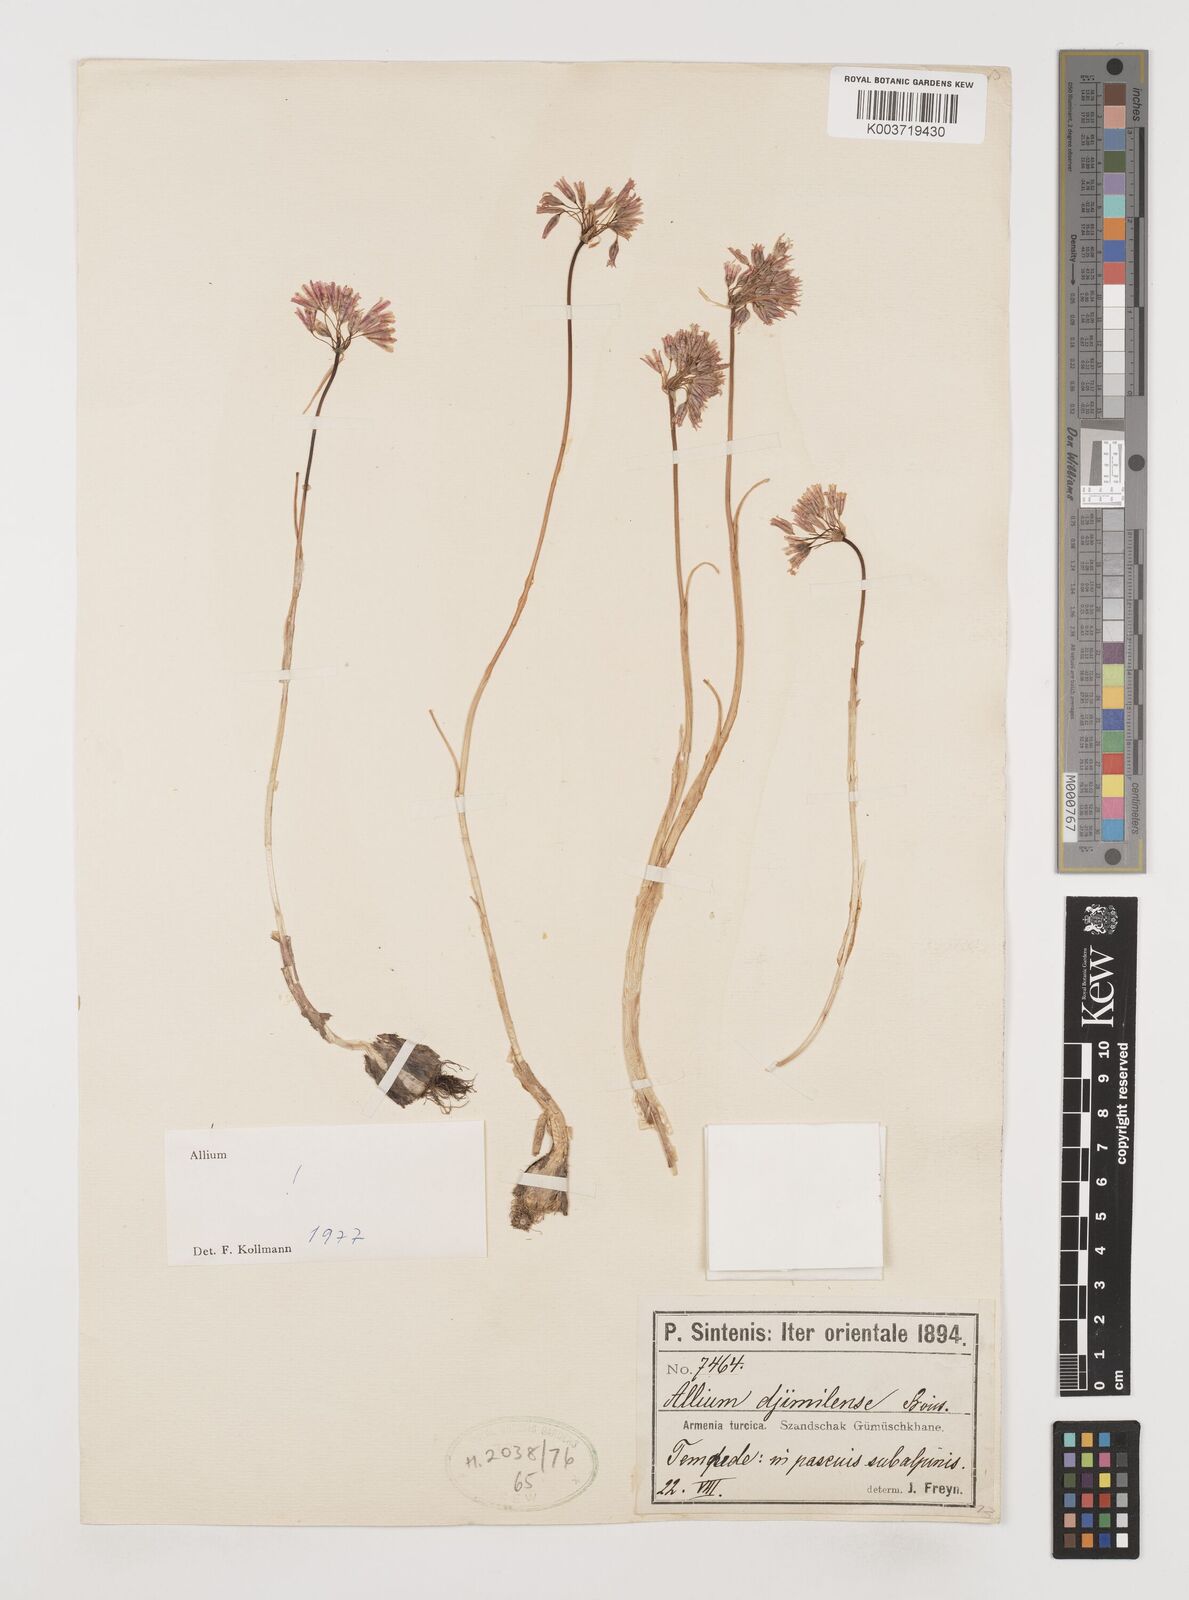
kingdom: Plantae
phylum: Tracheophyta
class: Liliopsida
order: Asparagales
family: Amaryllidaceae
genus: Allium
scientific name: Allium djimilense
